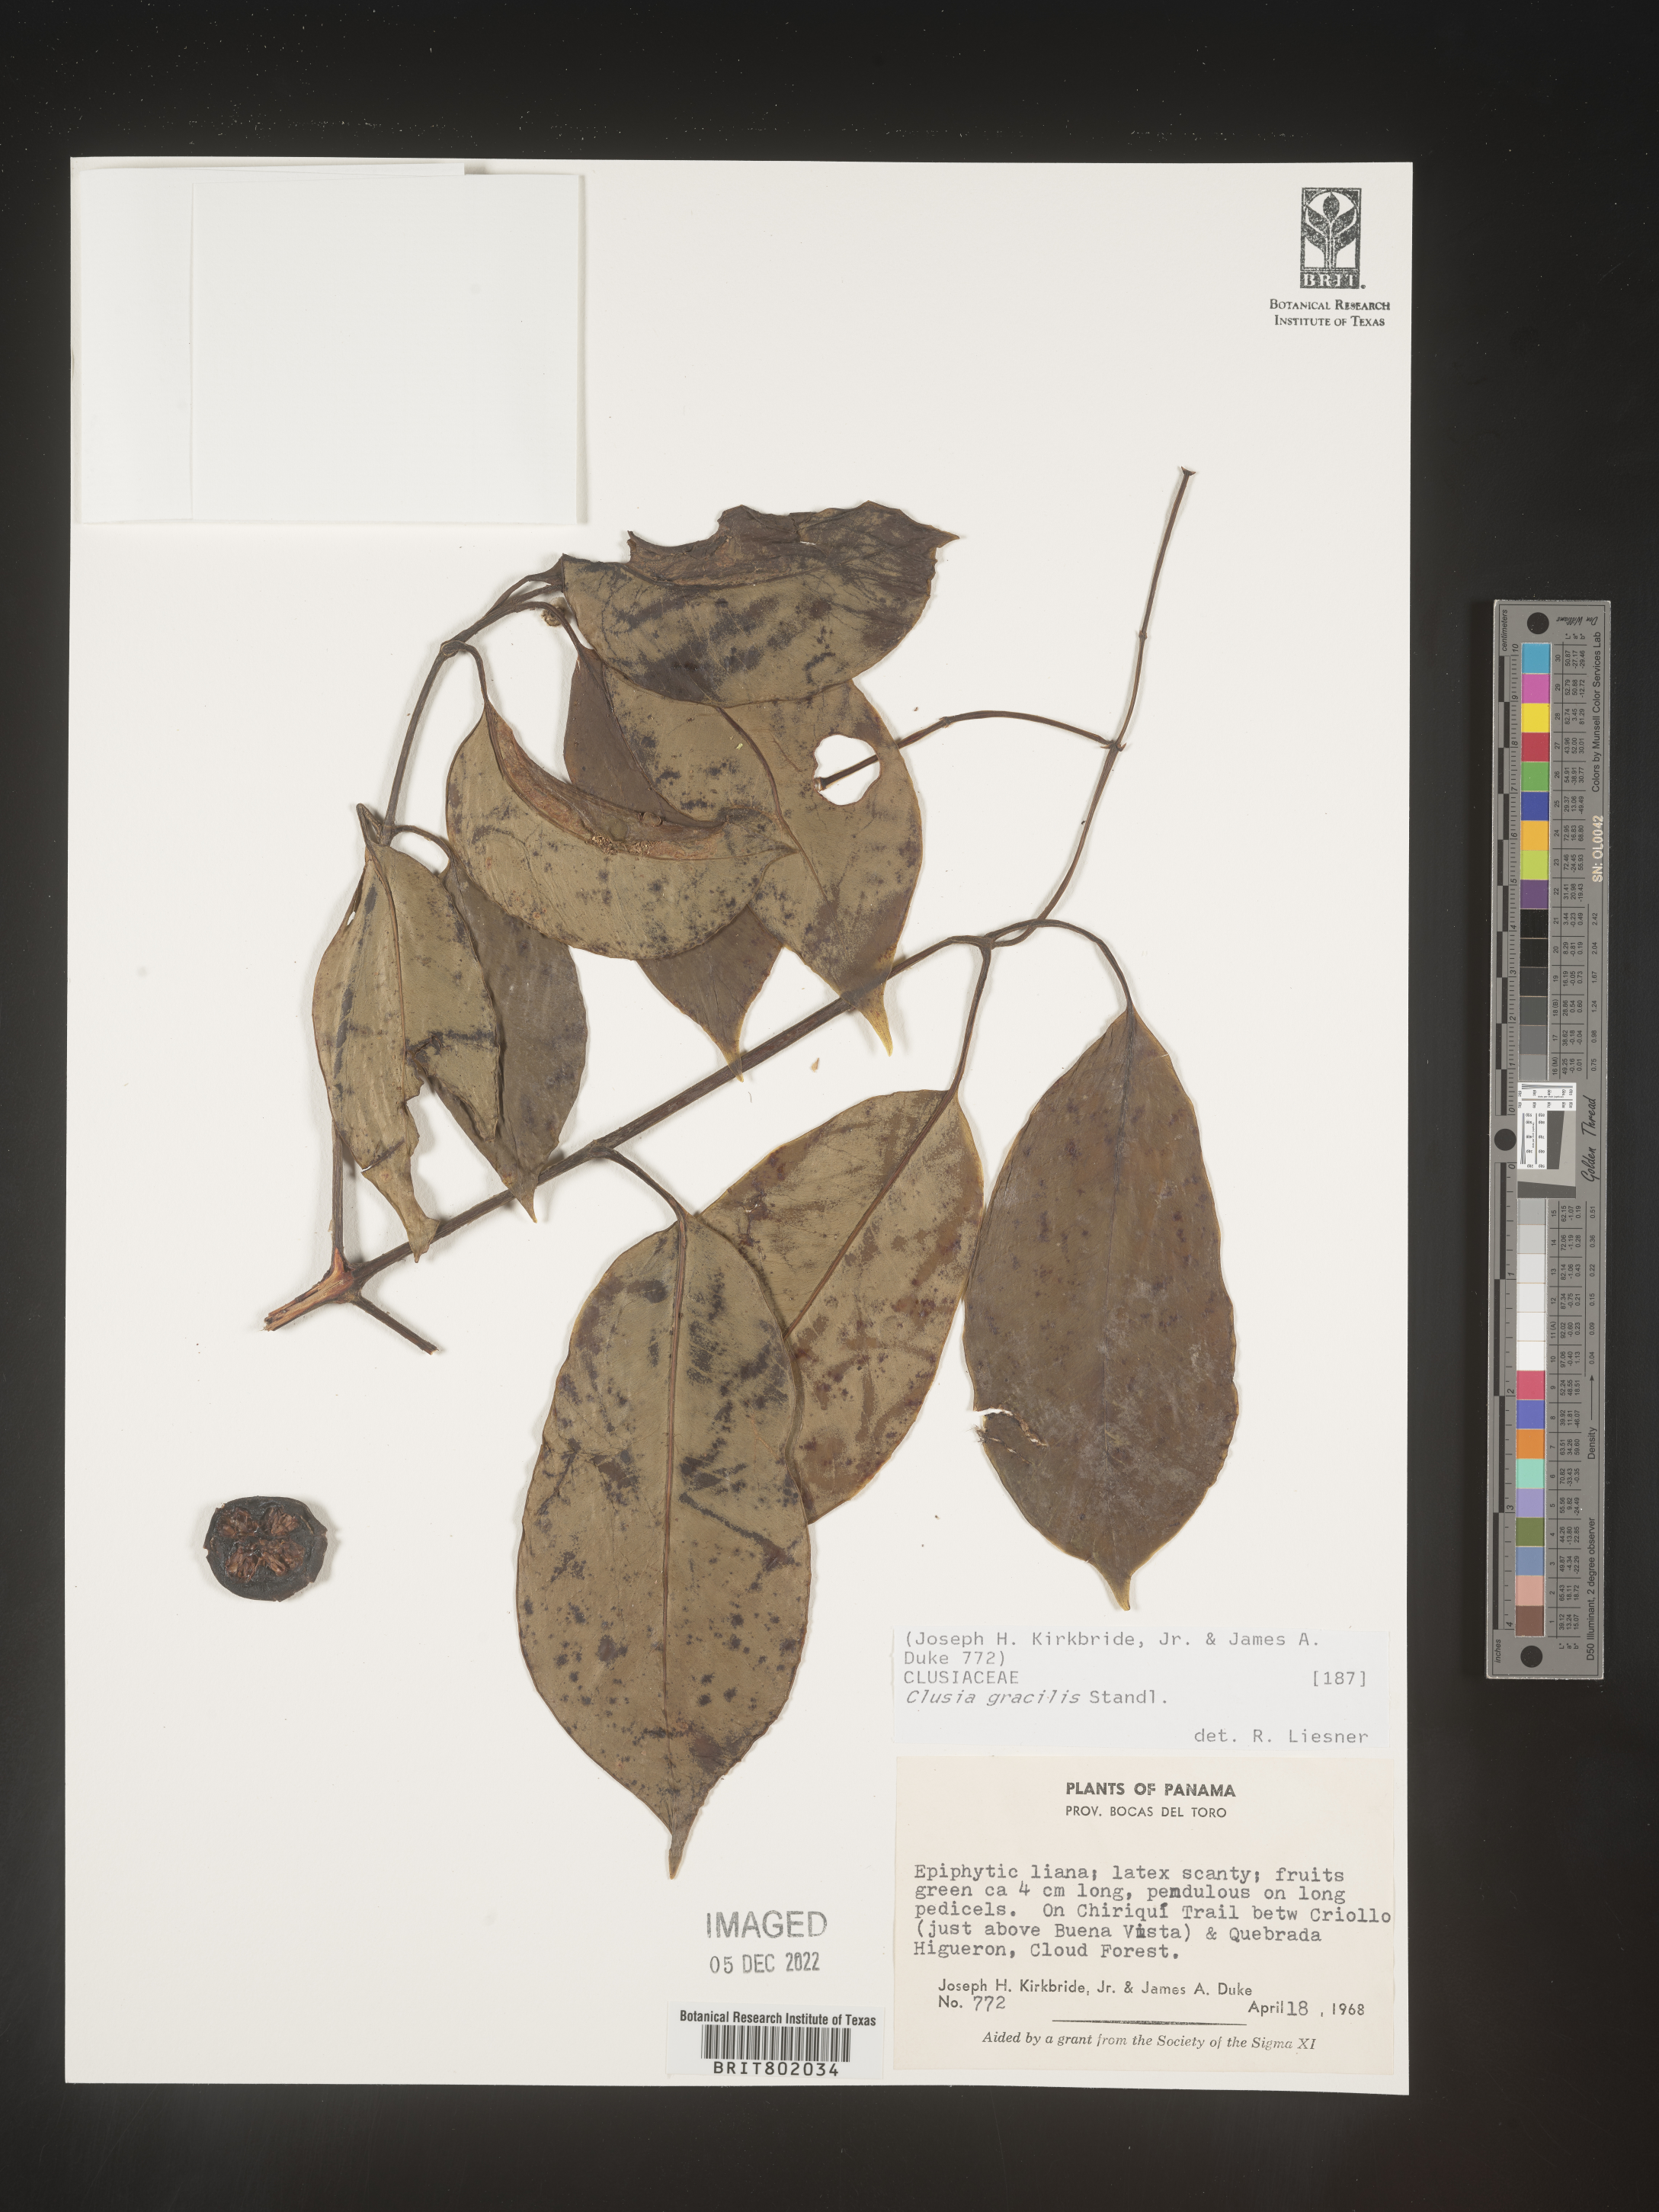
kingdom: Plantae
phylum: Tracheophyta
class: Magnoliopsida
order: Malpighiales
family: Clusiaceae
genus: Clusia
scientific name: Clusia
